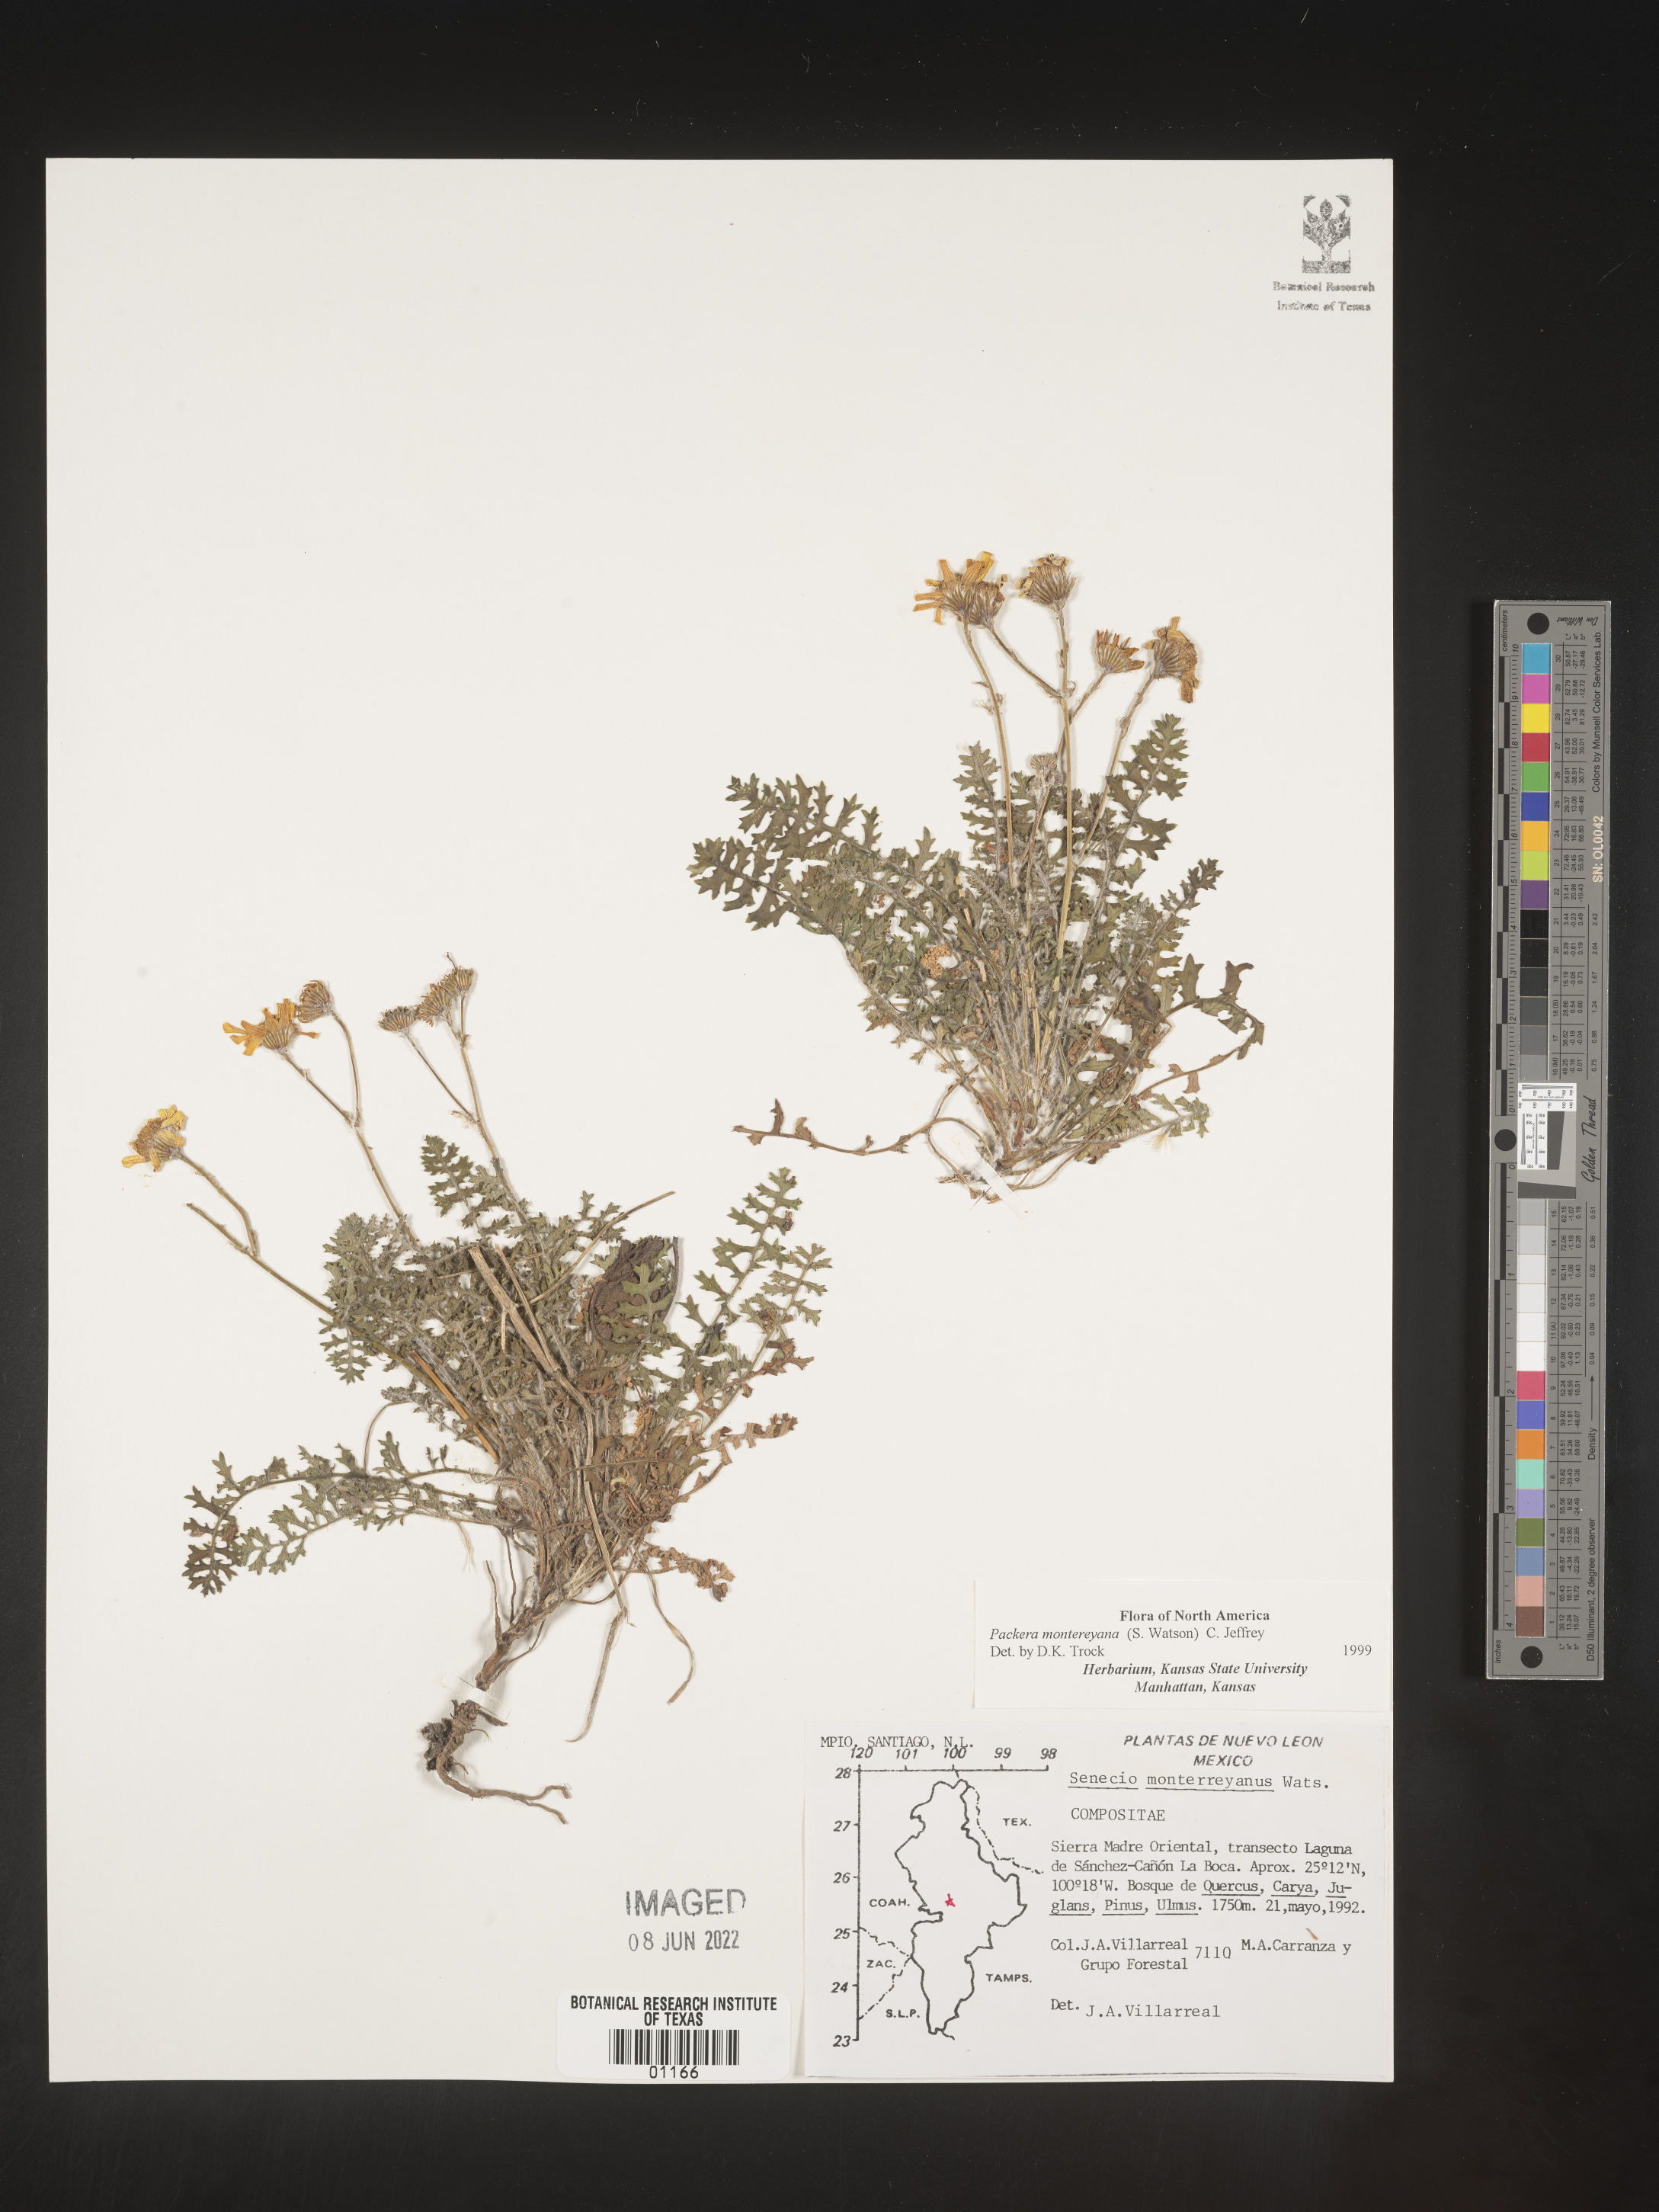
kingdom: Plantae
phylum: Tracheophyta
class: Magnoliopsida
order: Asterales
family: Asteraceae
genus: Packera
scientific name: Packera
